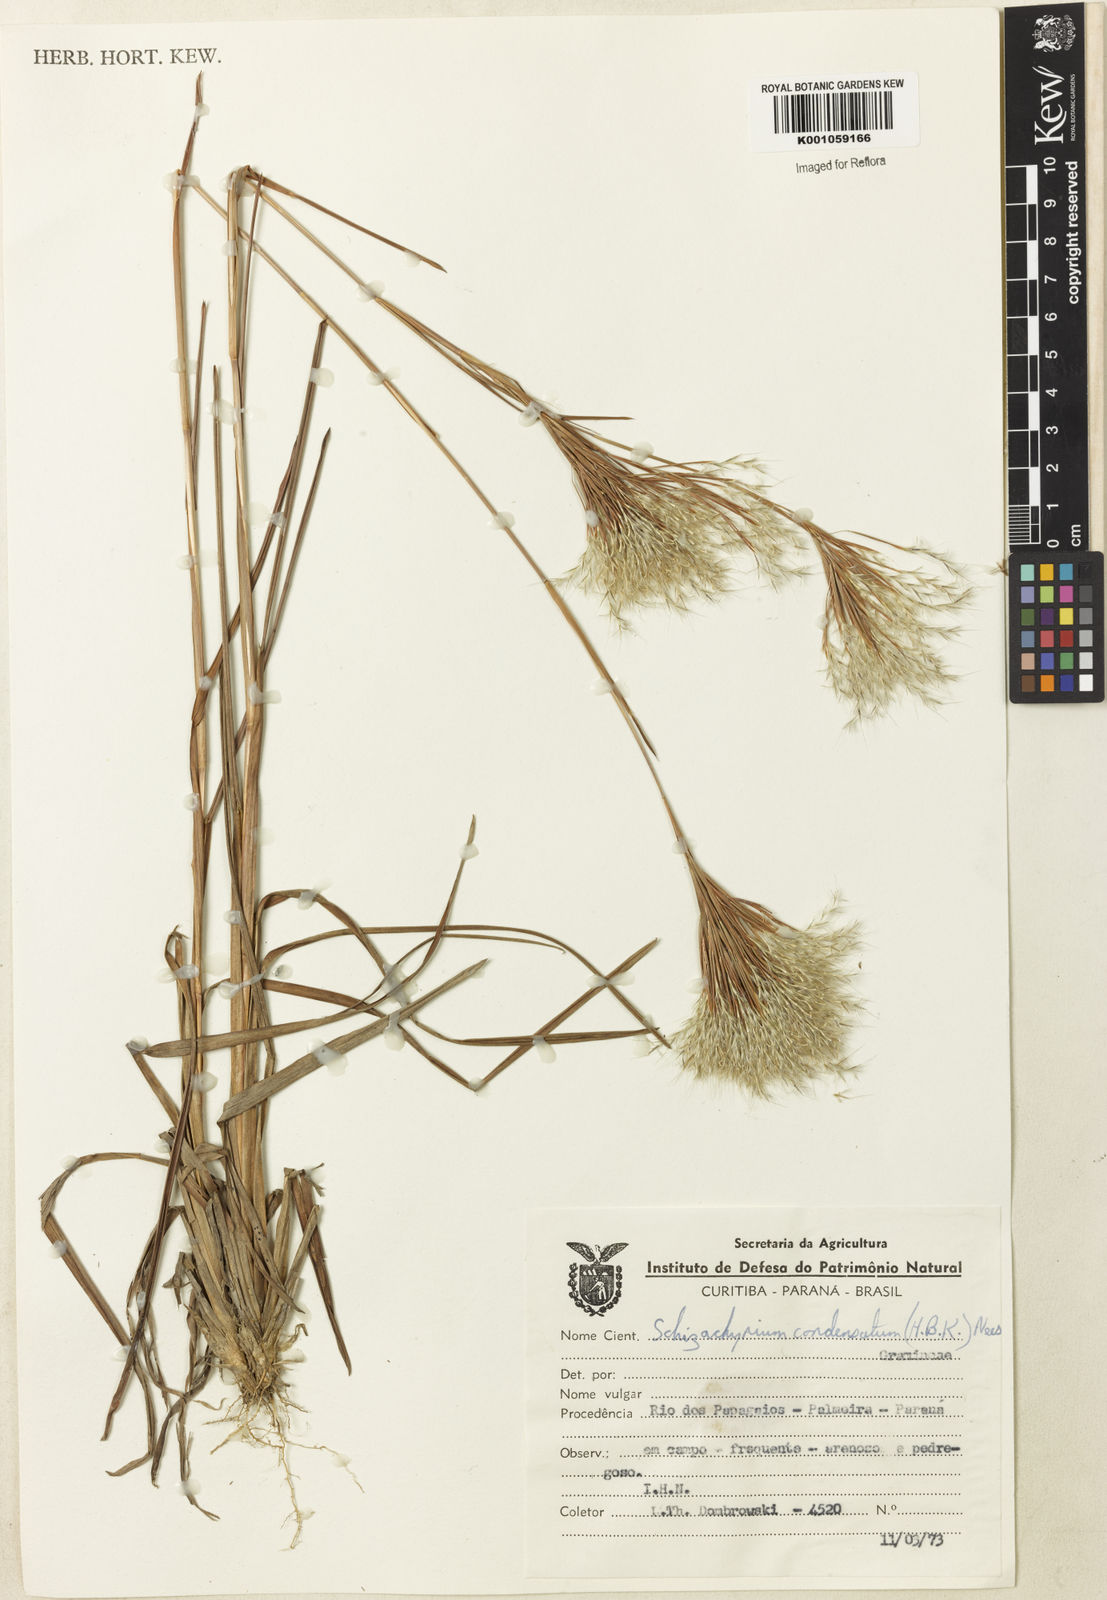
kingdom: Plantae
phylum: Tracheophyta
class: Liliopsida
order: Poales
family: Poaceae
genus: Schizachyrium
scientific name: Schizachyrium condensatum
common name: Bush beardgrass
